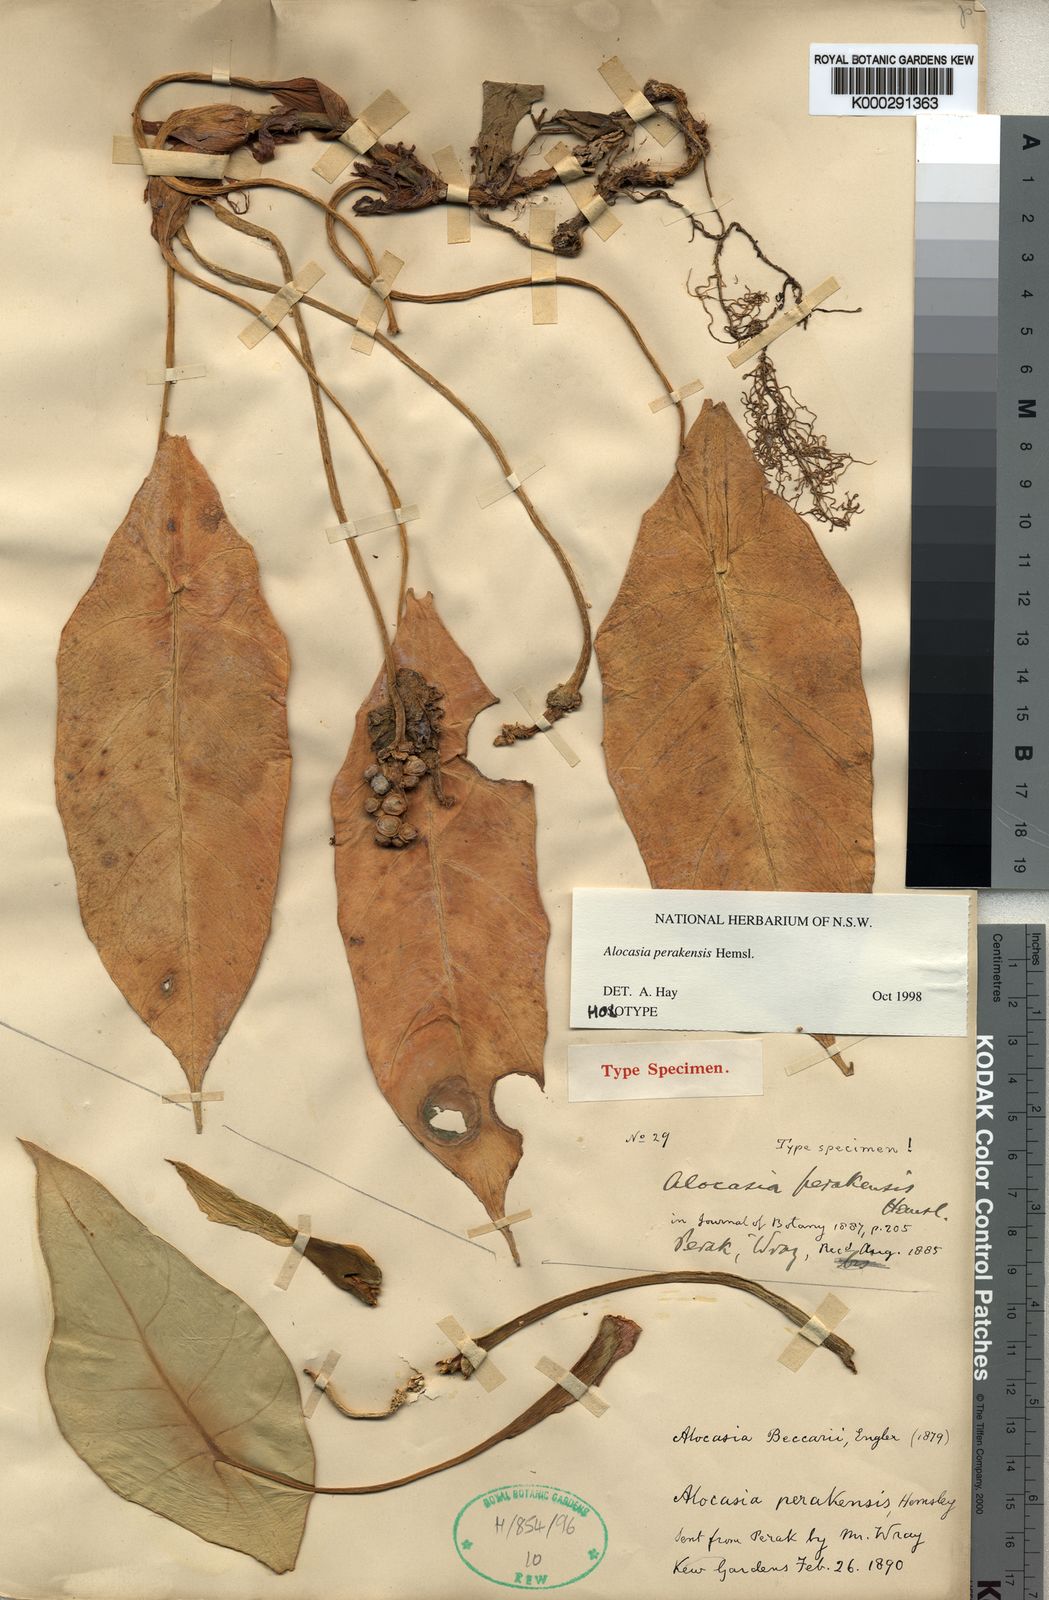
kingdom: Plantae
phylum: Tracheophyta
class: Liliopsida
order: Alismatales
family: Araceae
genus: Alocasia
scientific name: Alocasia perakensis
